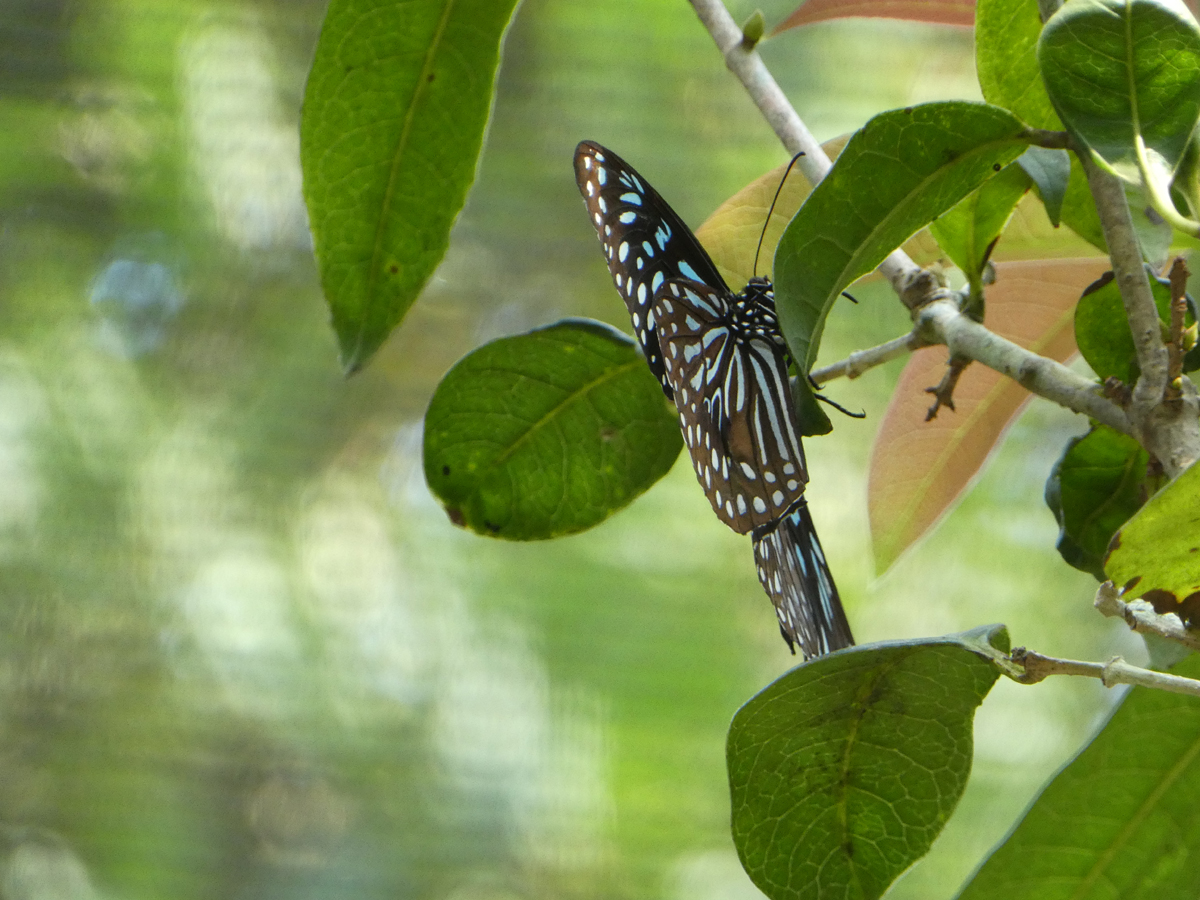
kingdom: Animalia
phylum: Arthropoda
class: Insecta
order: Lepidoptera
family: Nymphalidae
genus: Tirumala
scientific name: Tirumala limniace
